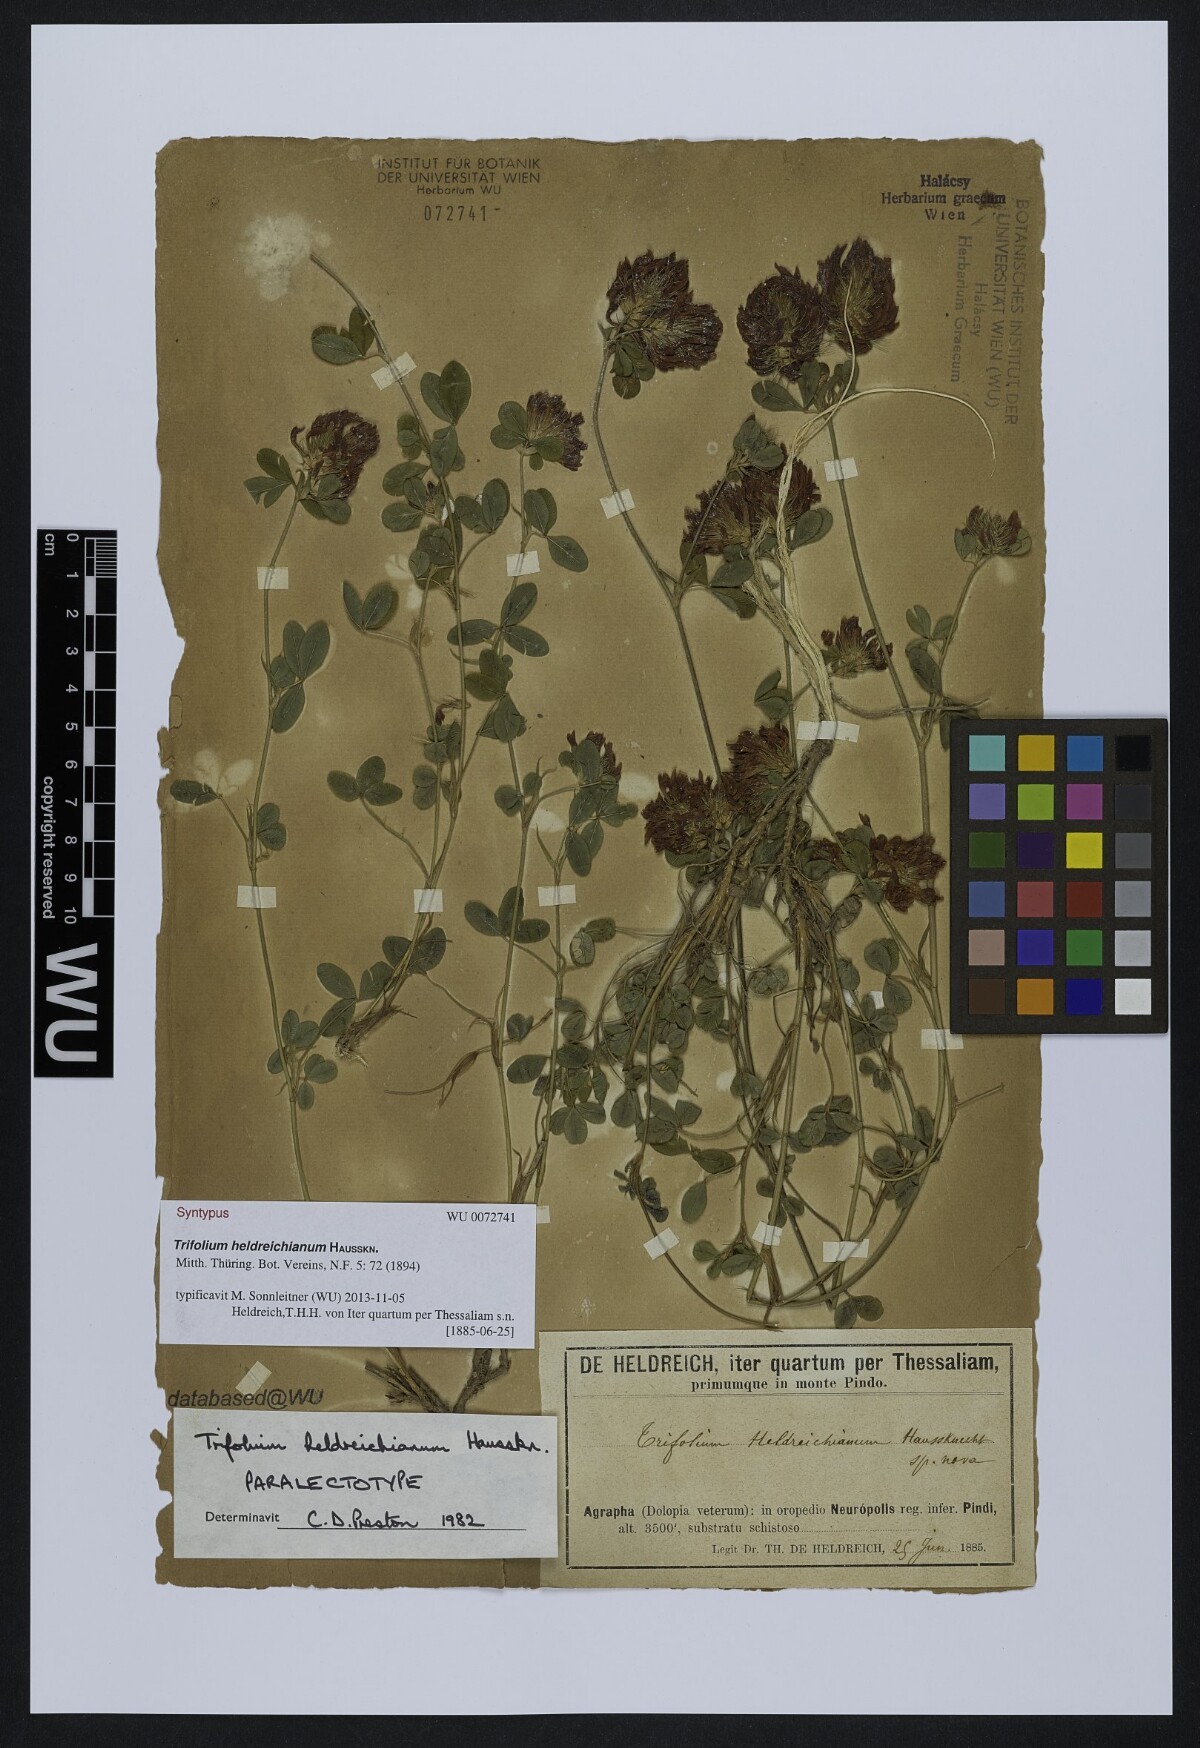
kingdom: Plantae
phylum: Tracheophyta
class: Magnoliopsida
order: Fabales
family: Fabaceae
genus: Trifolium
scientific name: Trifolium heldreichianum
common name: Heldreich's clover
